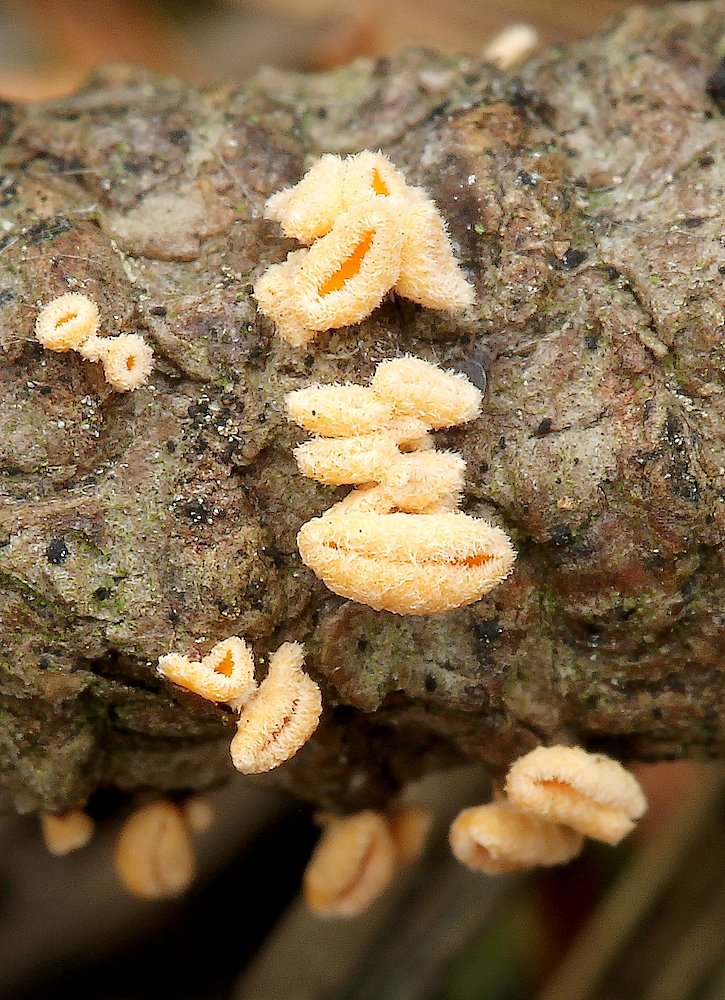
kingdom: Fungi
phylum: Ascomycota
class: Leotiomycetes
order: Helotiales
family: Lachnaceae
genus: Lachnellula
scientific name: Lachnellula
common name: frynseskive
